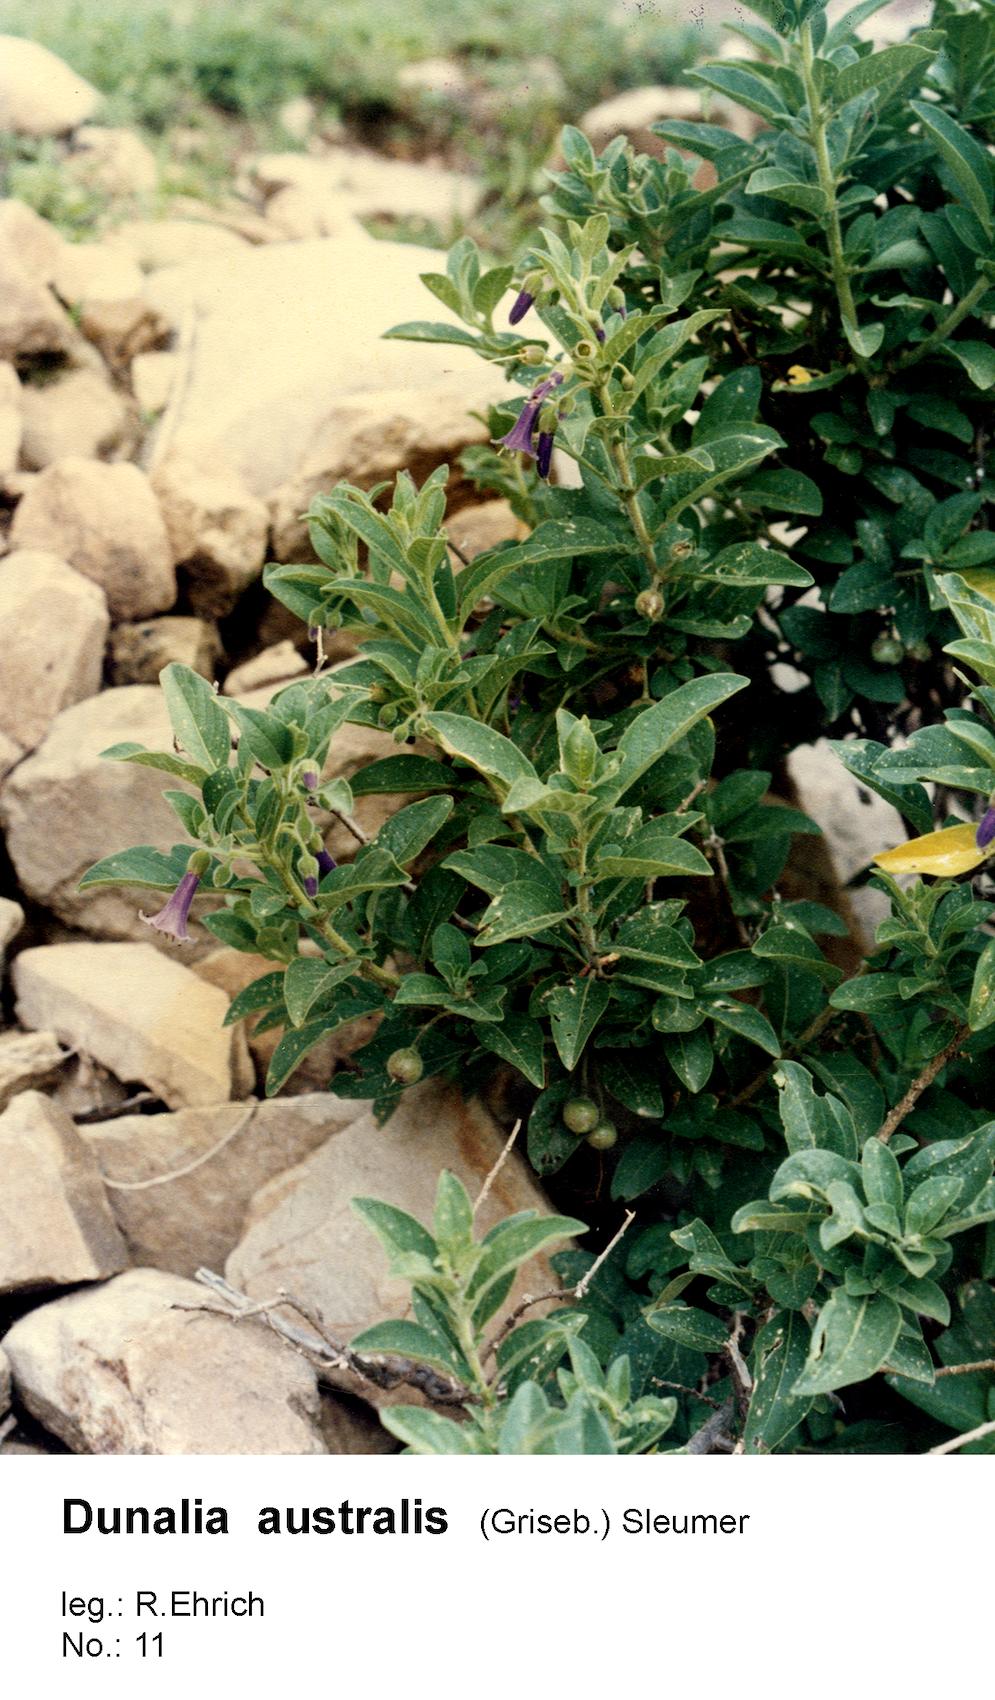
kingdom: Plantae
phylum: Tracheophyta
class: Magnoliopsida
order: Solanales
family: Solanaceae
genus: Eriolarynx
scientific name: Eriolarynx australis
